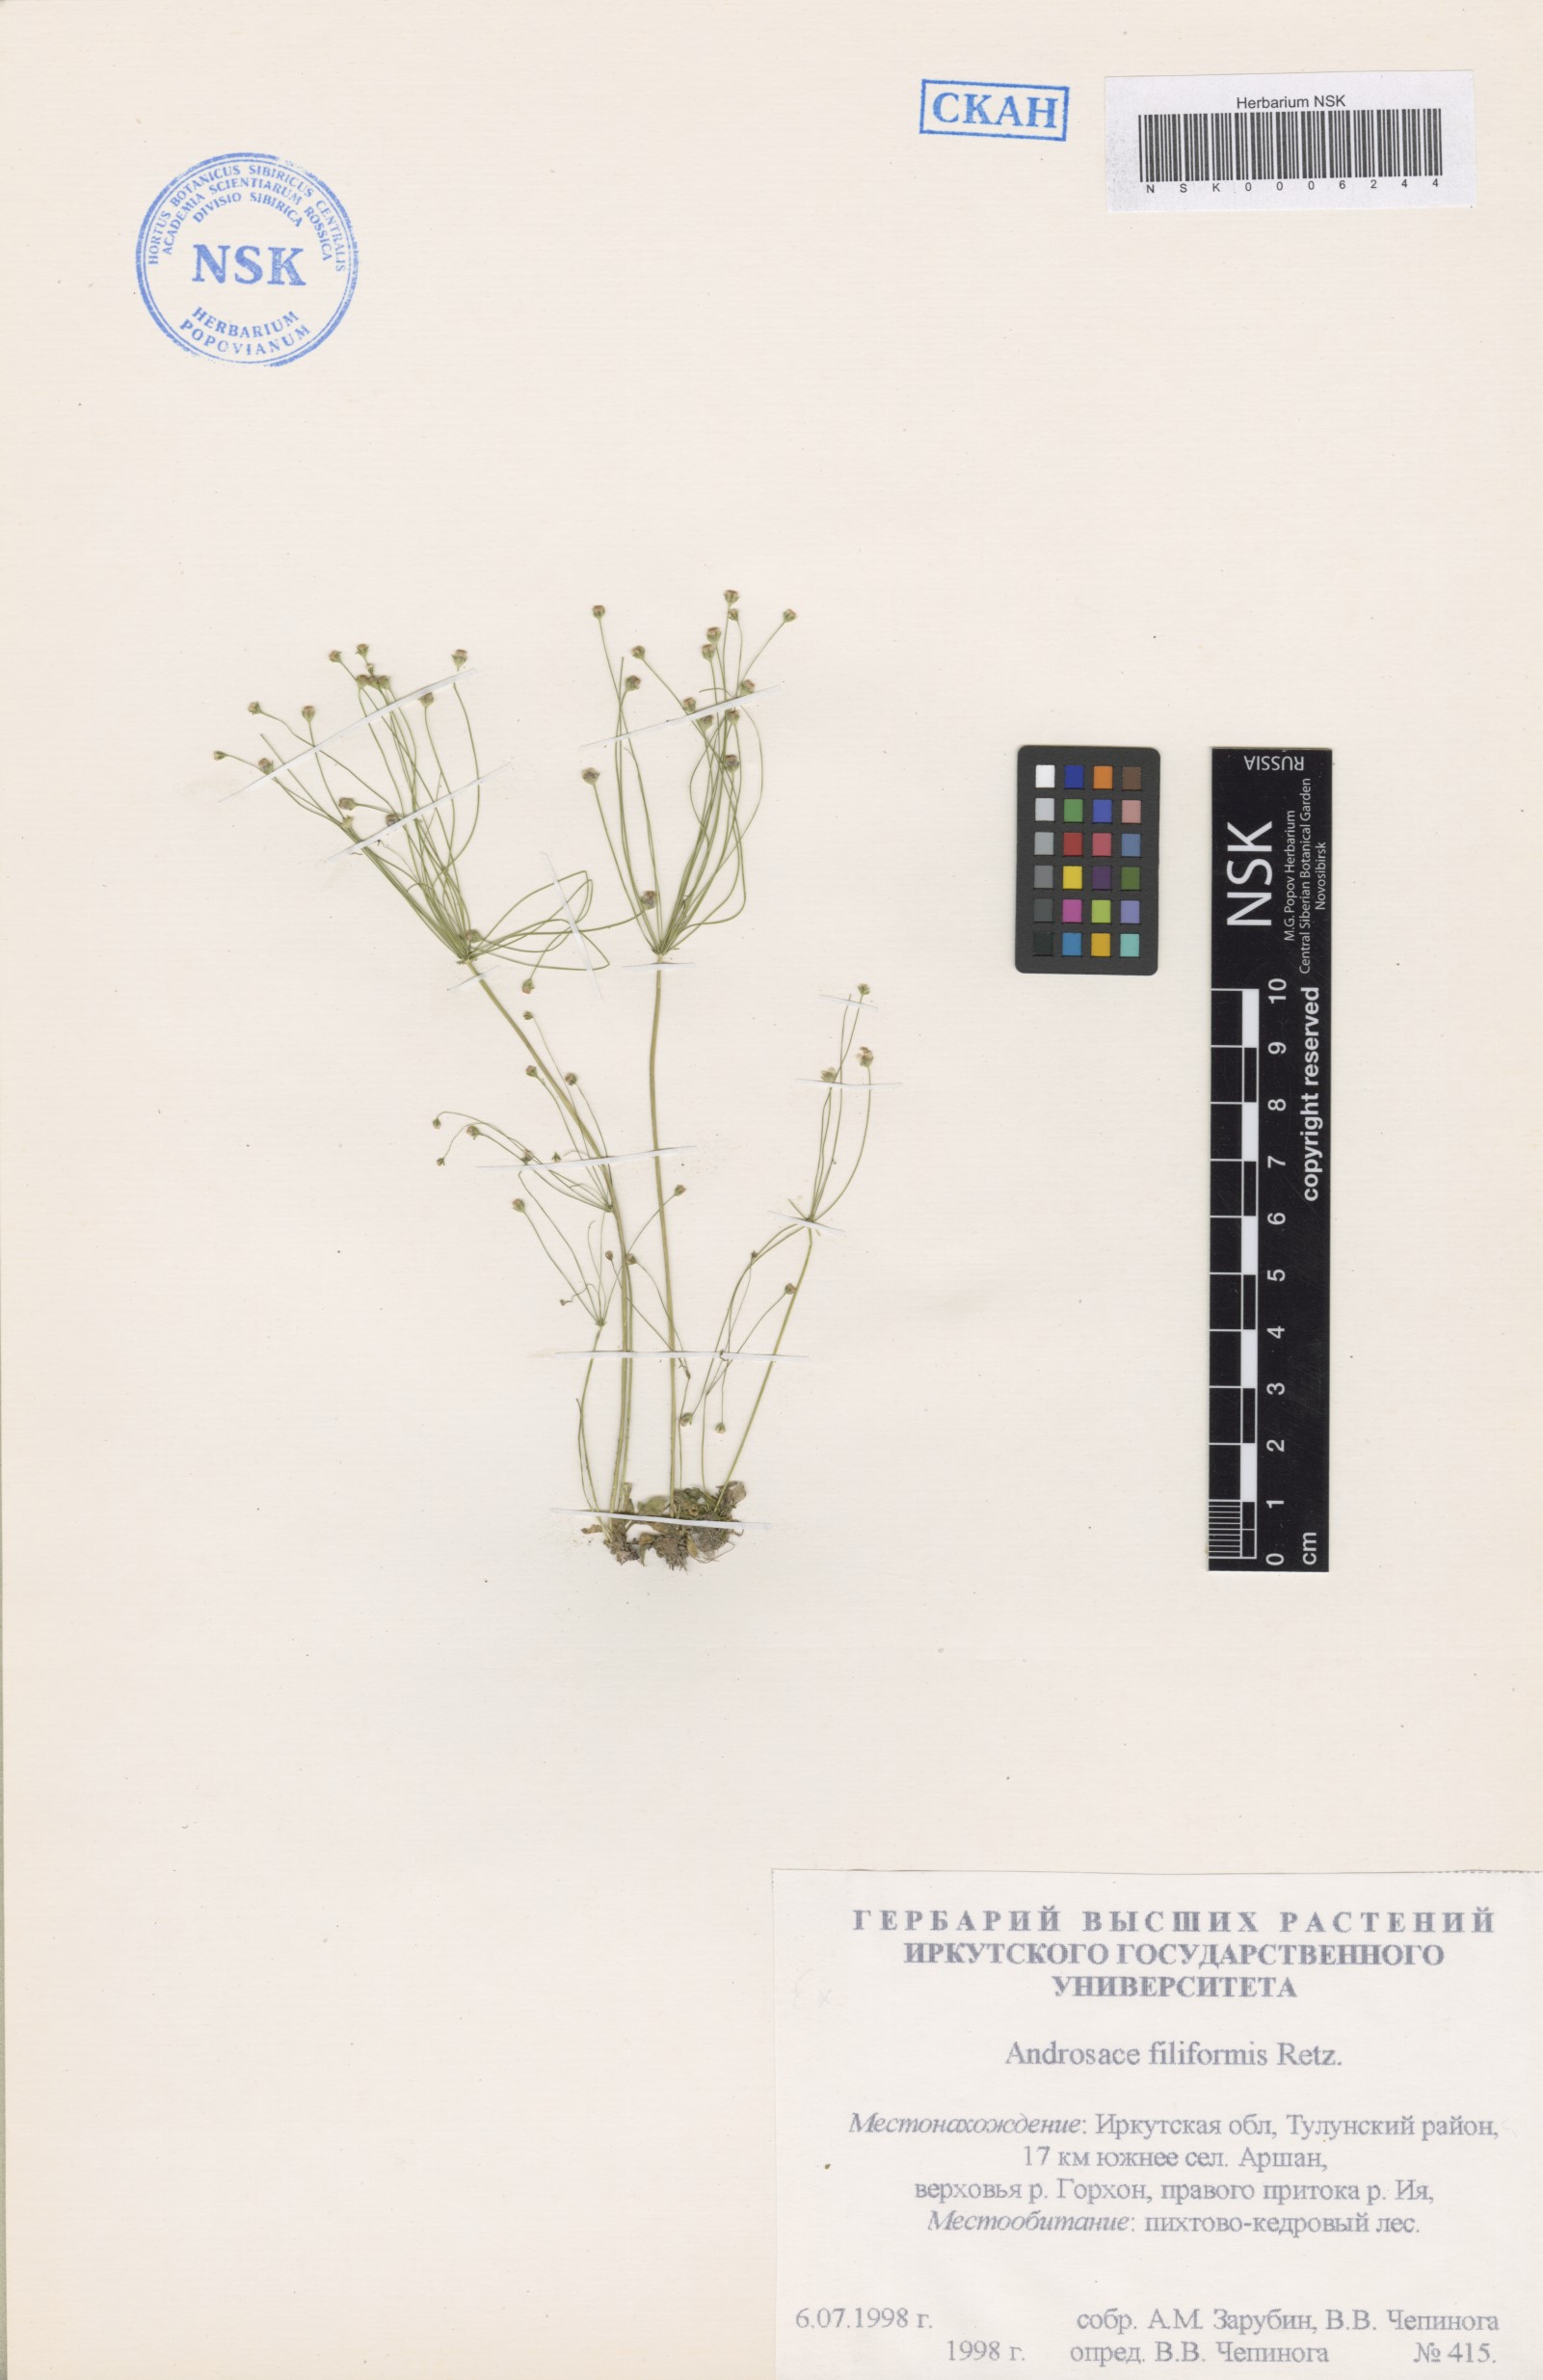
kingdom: Plantae
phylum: Tracheophyta
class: Magnoliopsida
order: Ericales
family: Primulaceae
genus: Androsace
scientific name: Androsace filiformis
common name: Filiform rock jasmine
